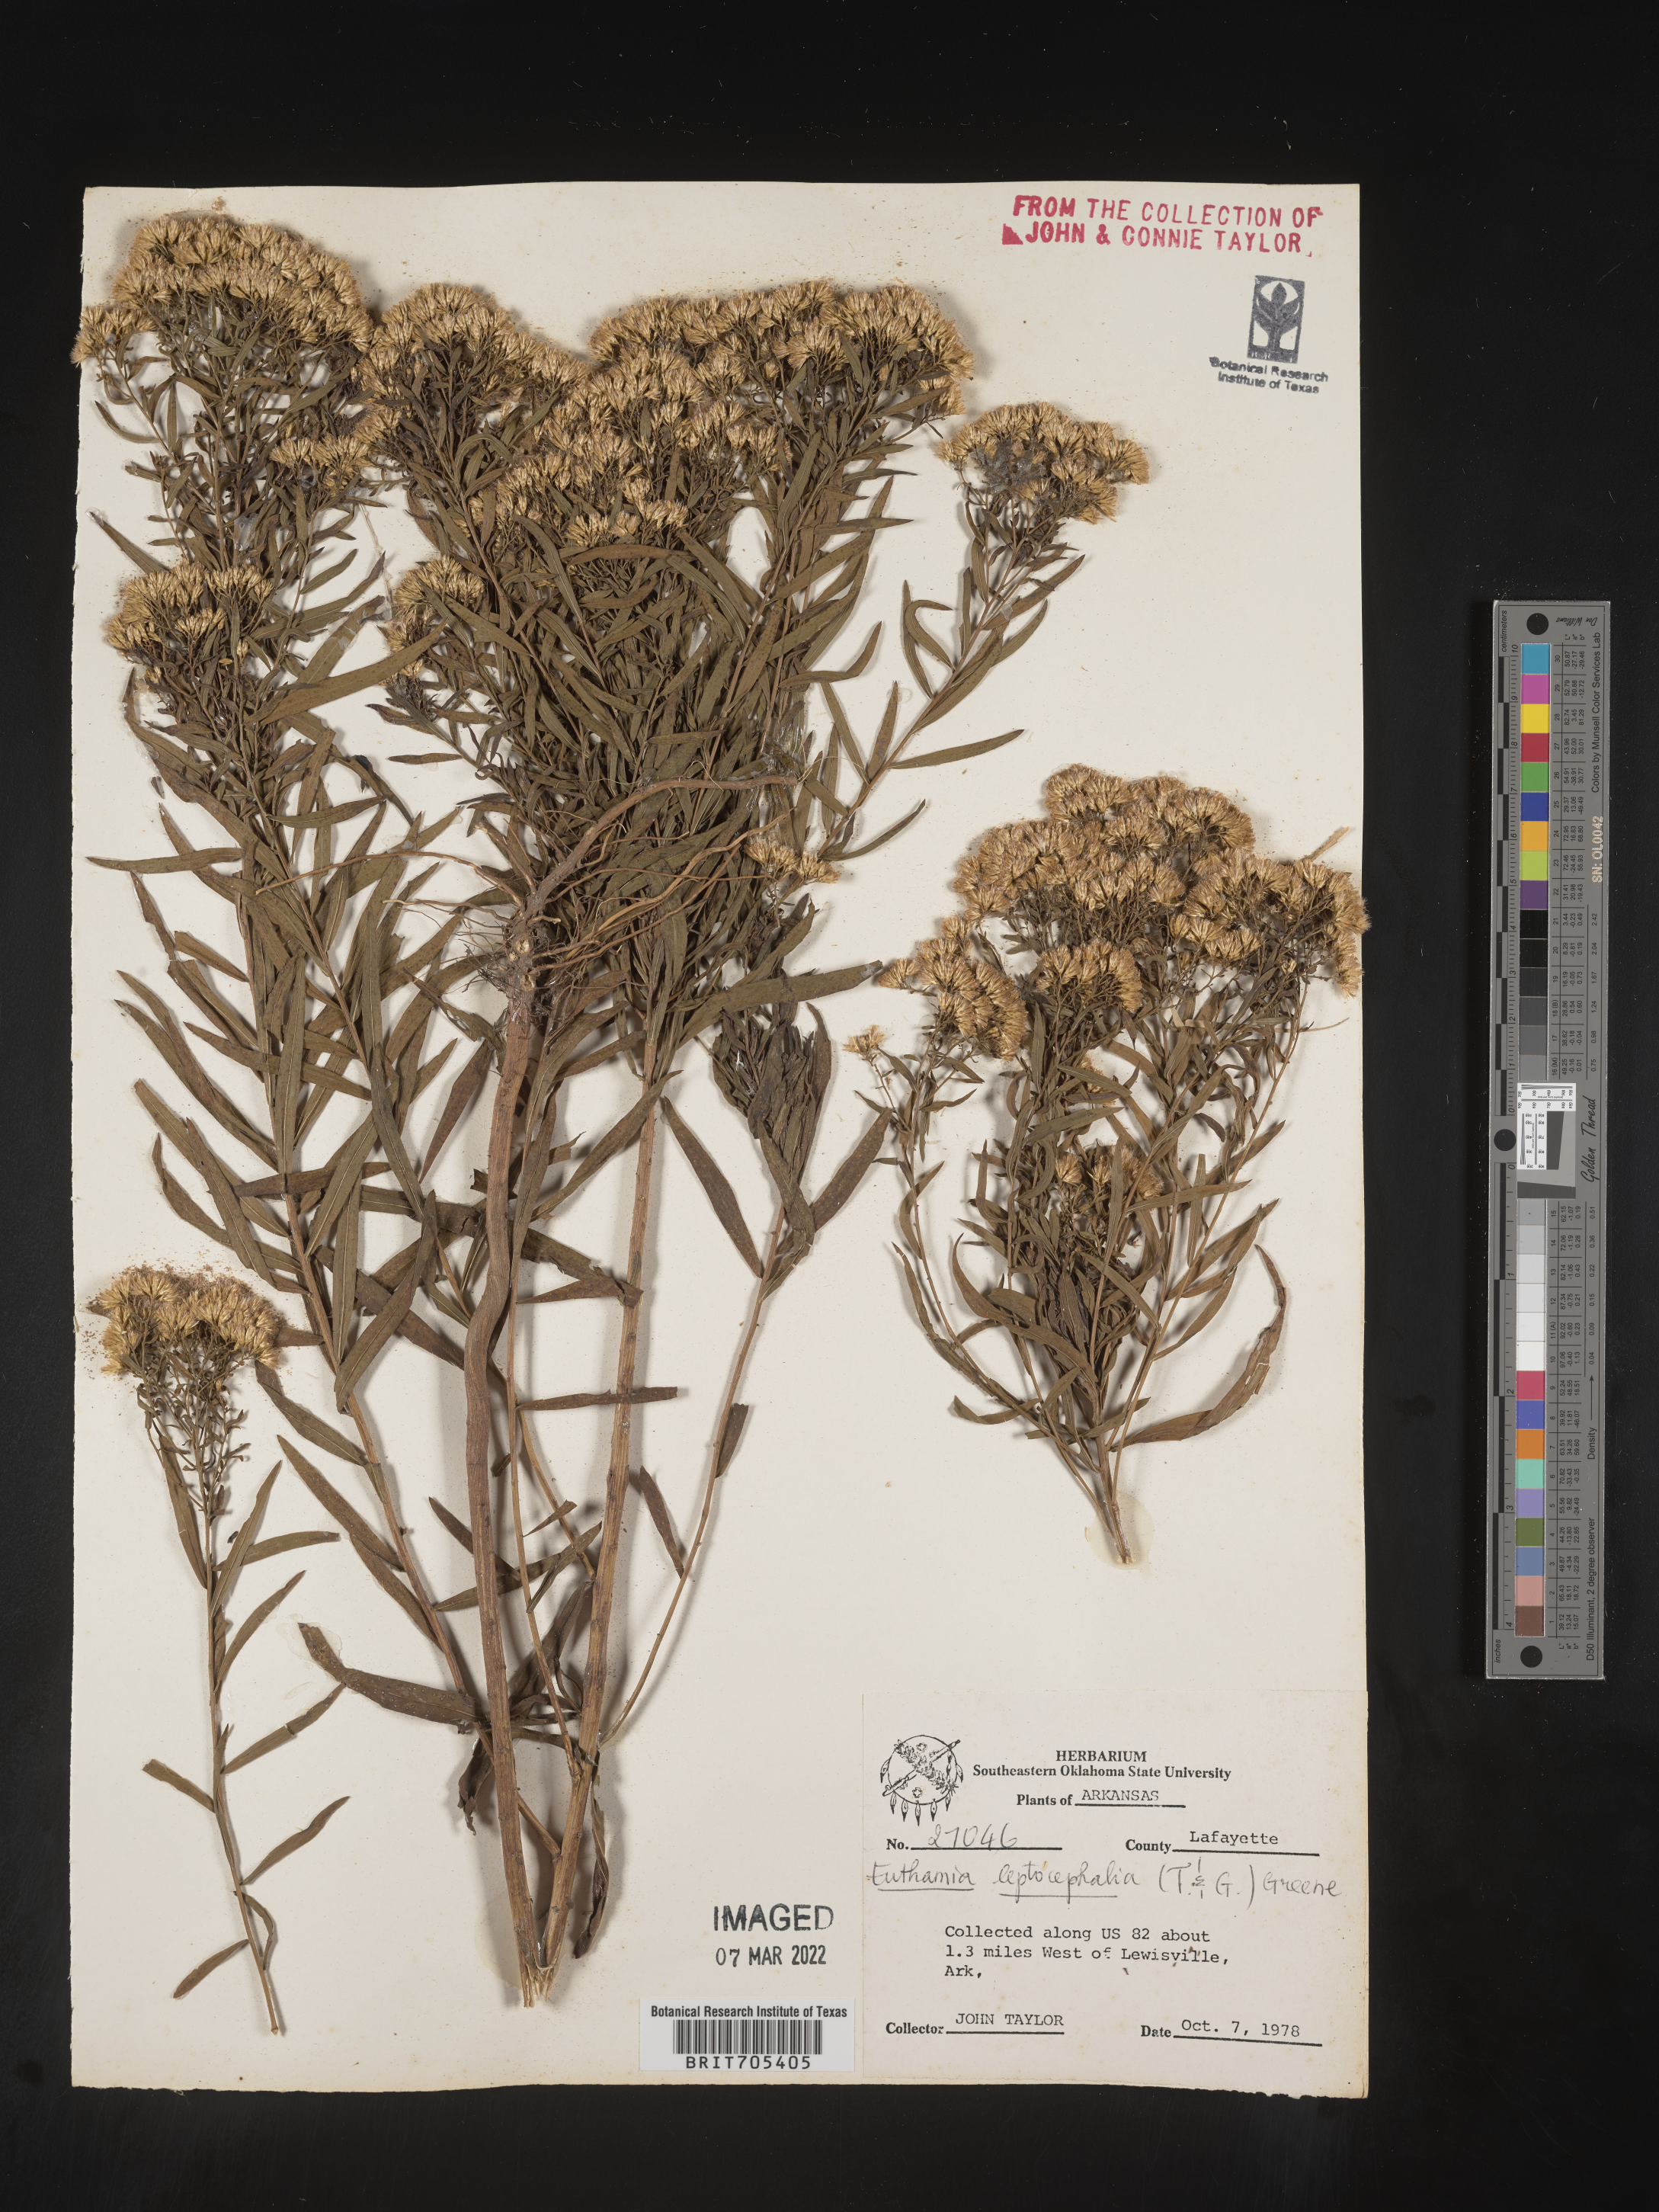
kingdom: Plantae
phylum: Tracheophyta
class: Magnoliopsida
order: Asterales
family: Asteraceae
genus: Euthamia
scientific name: Euthamia leptocephala
